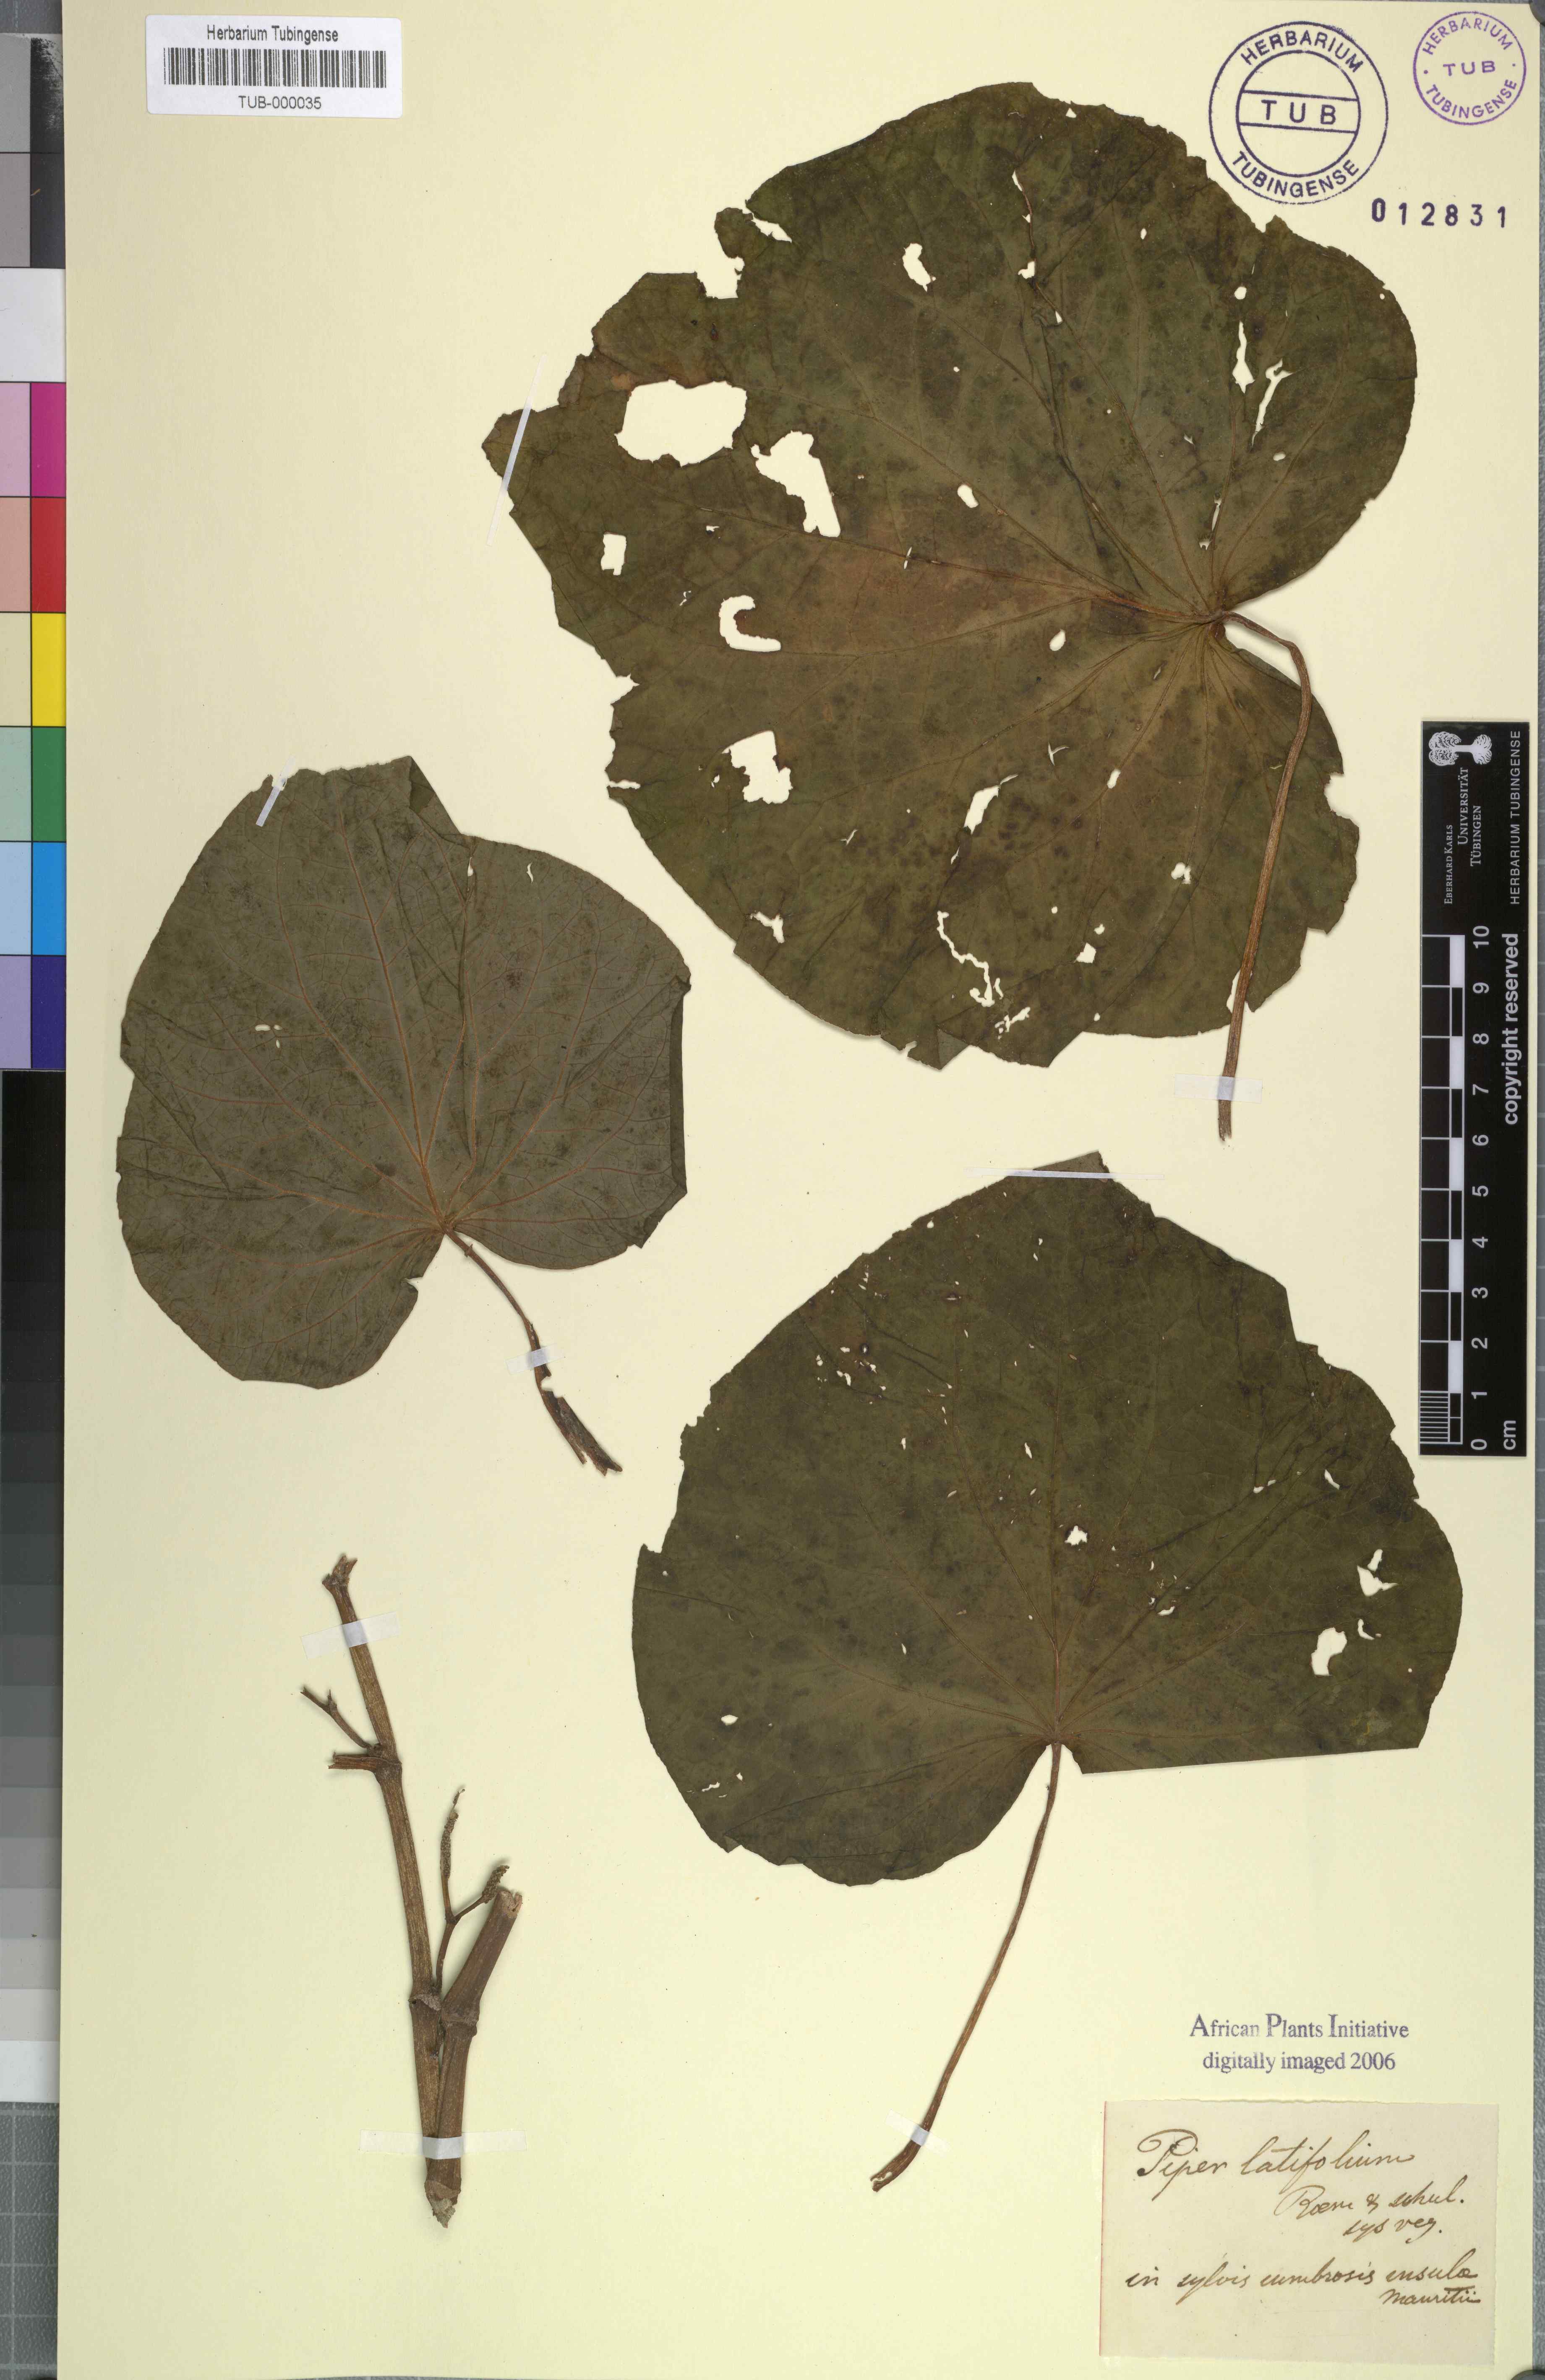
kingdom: Plantae
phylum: Tracheophyta
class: Magnoliopsida
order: Piperales
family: Piperaceae
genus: Macropiper
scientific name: Macropiper latifolium
